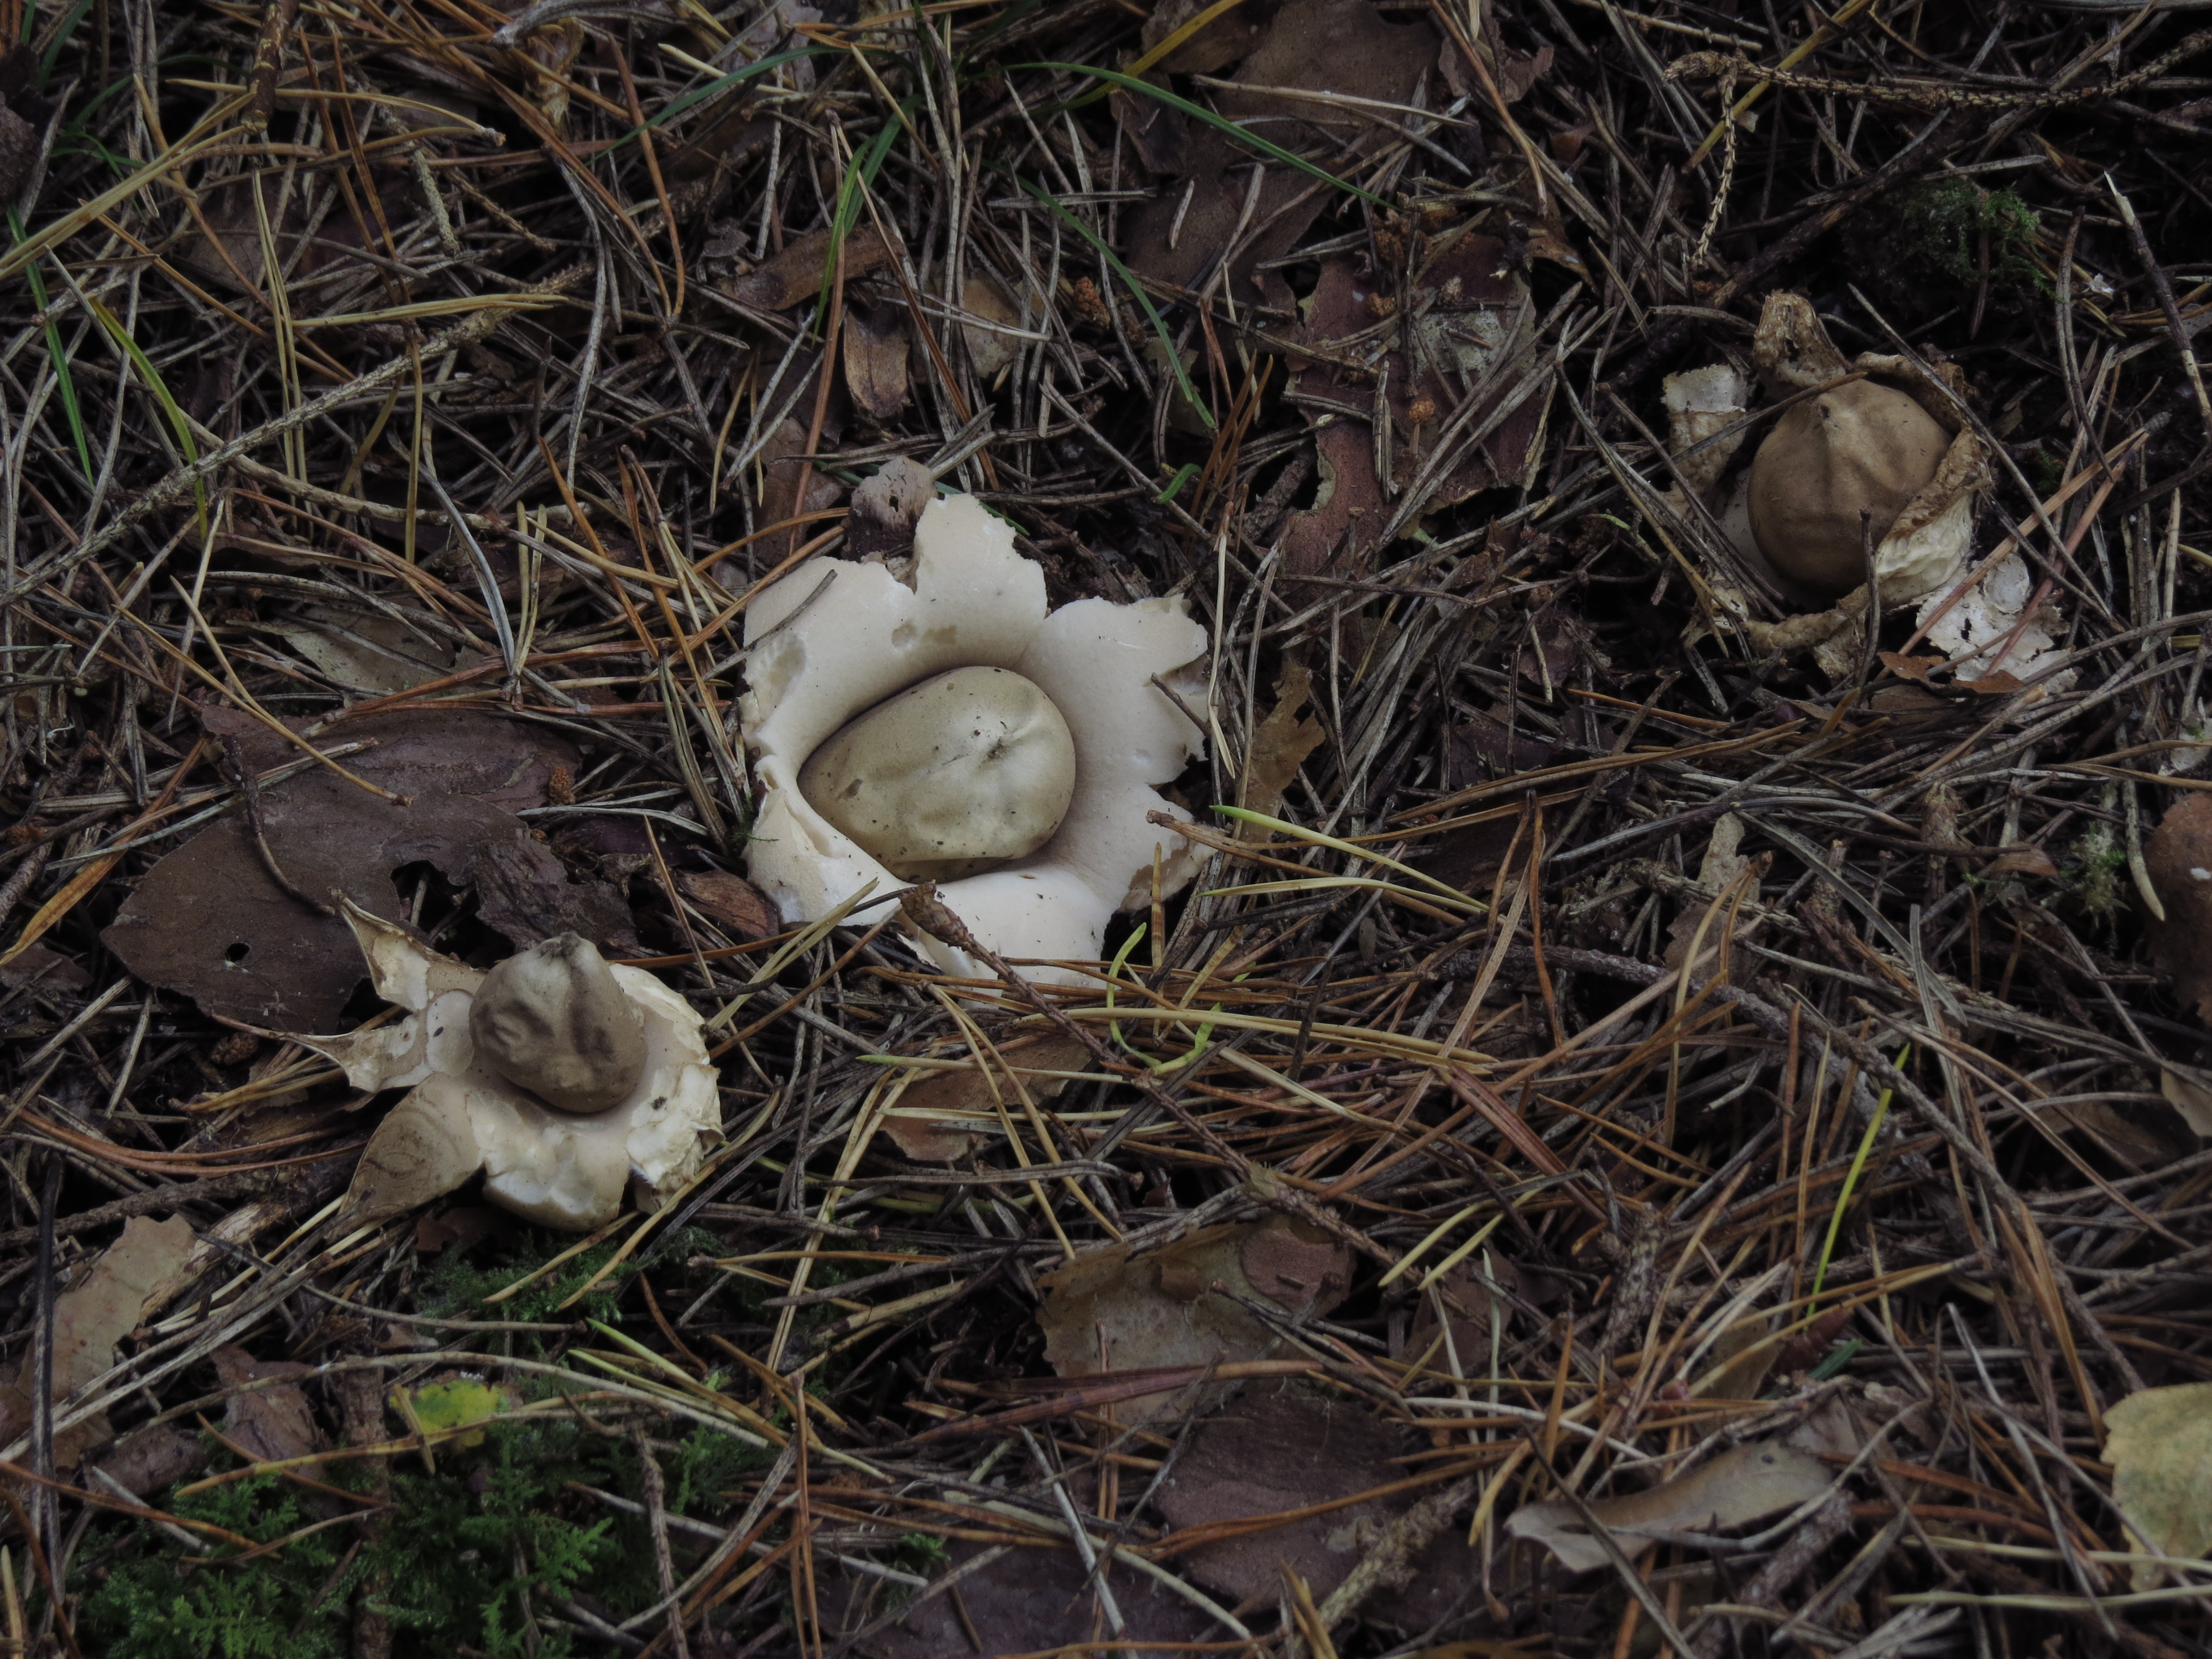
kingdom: Fungi
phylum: Basidiomycota
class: Agaricomycetes
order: Geastrales
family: Geastraceae
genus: Geastrum
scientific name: Geastrum fimbriatum
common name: Sessile earthstar
